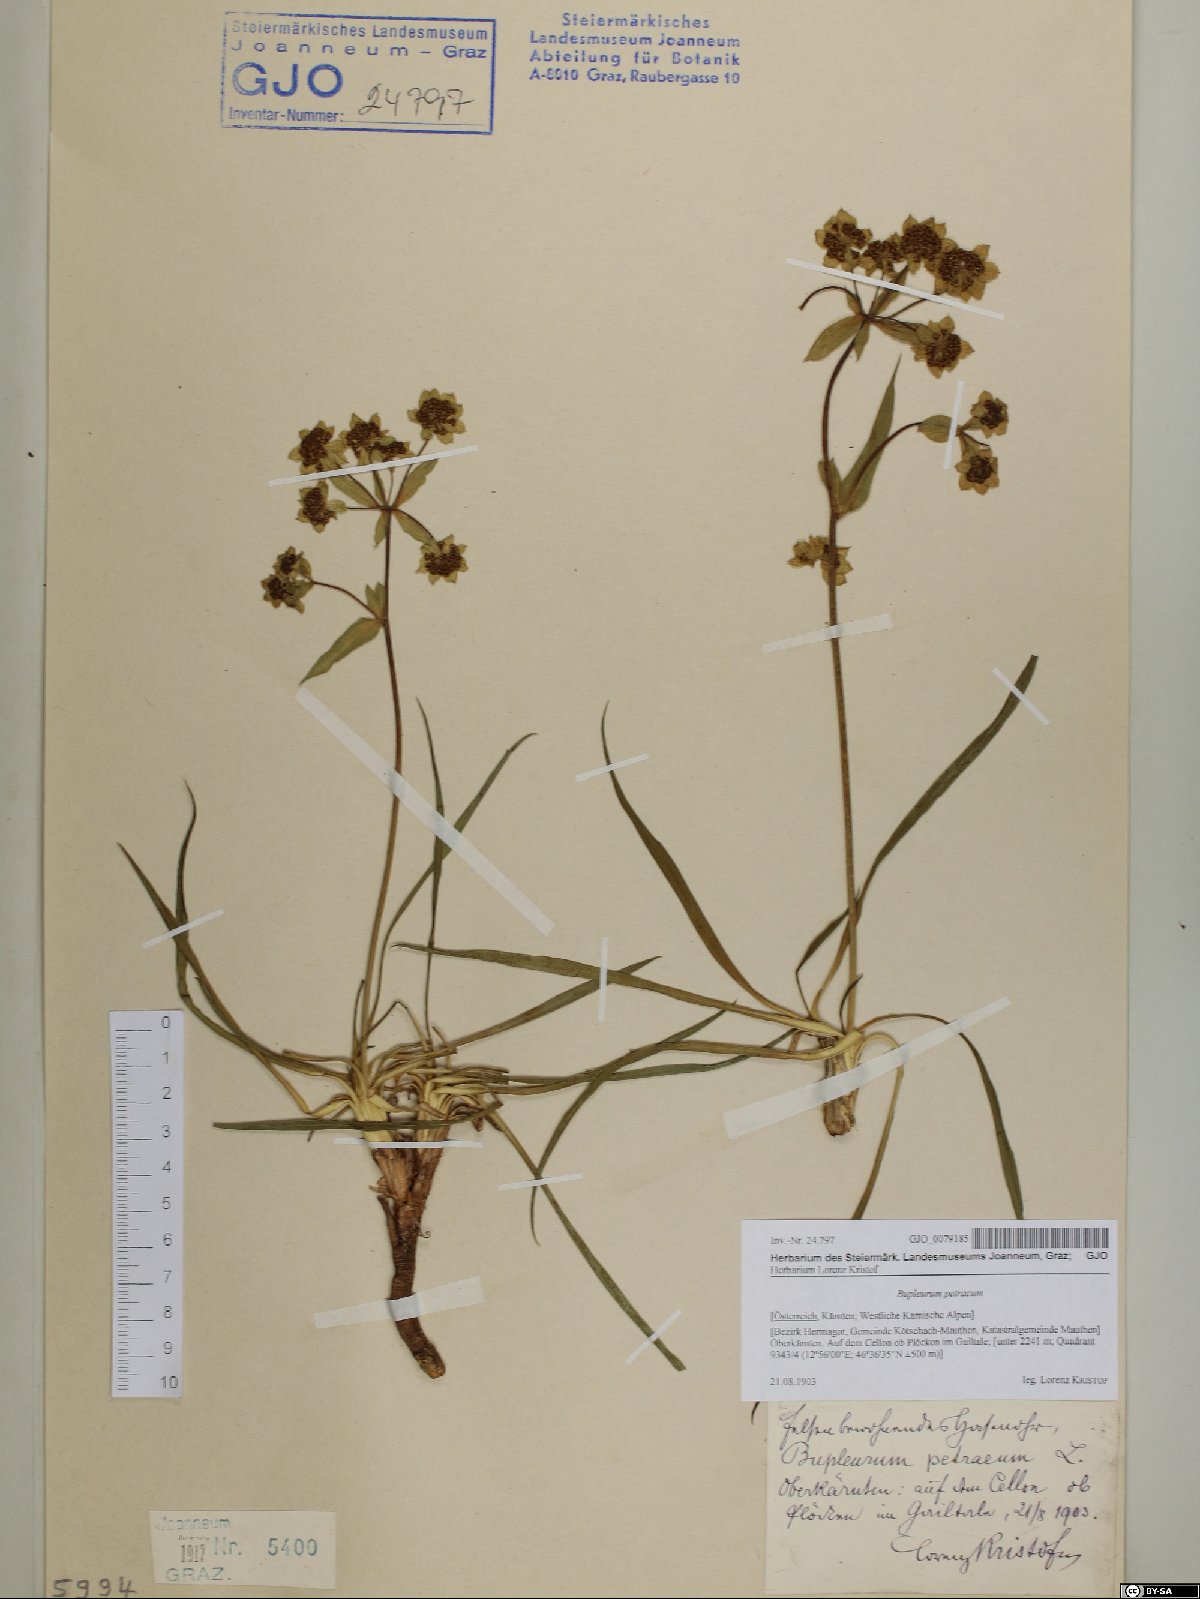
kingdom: Plantae
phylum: Tracheophyta
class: Magnoliopsida
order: Apiales
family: Apiaceae
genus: Bupleurum
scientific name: Bupleurum petraeum
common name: Rock hare's-ear
